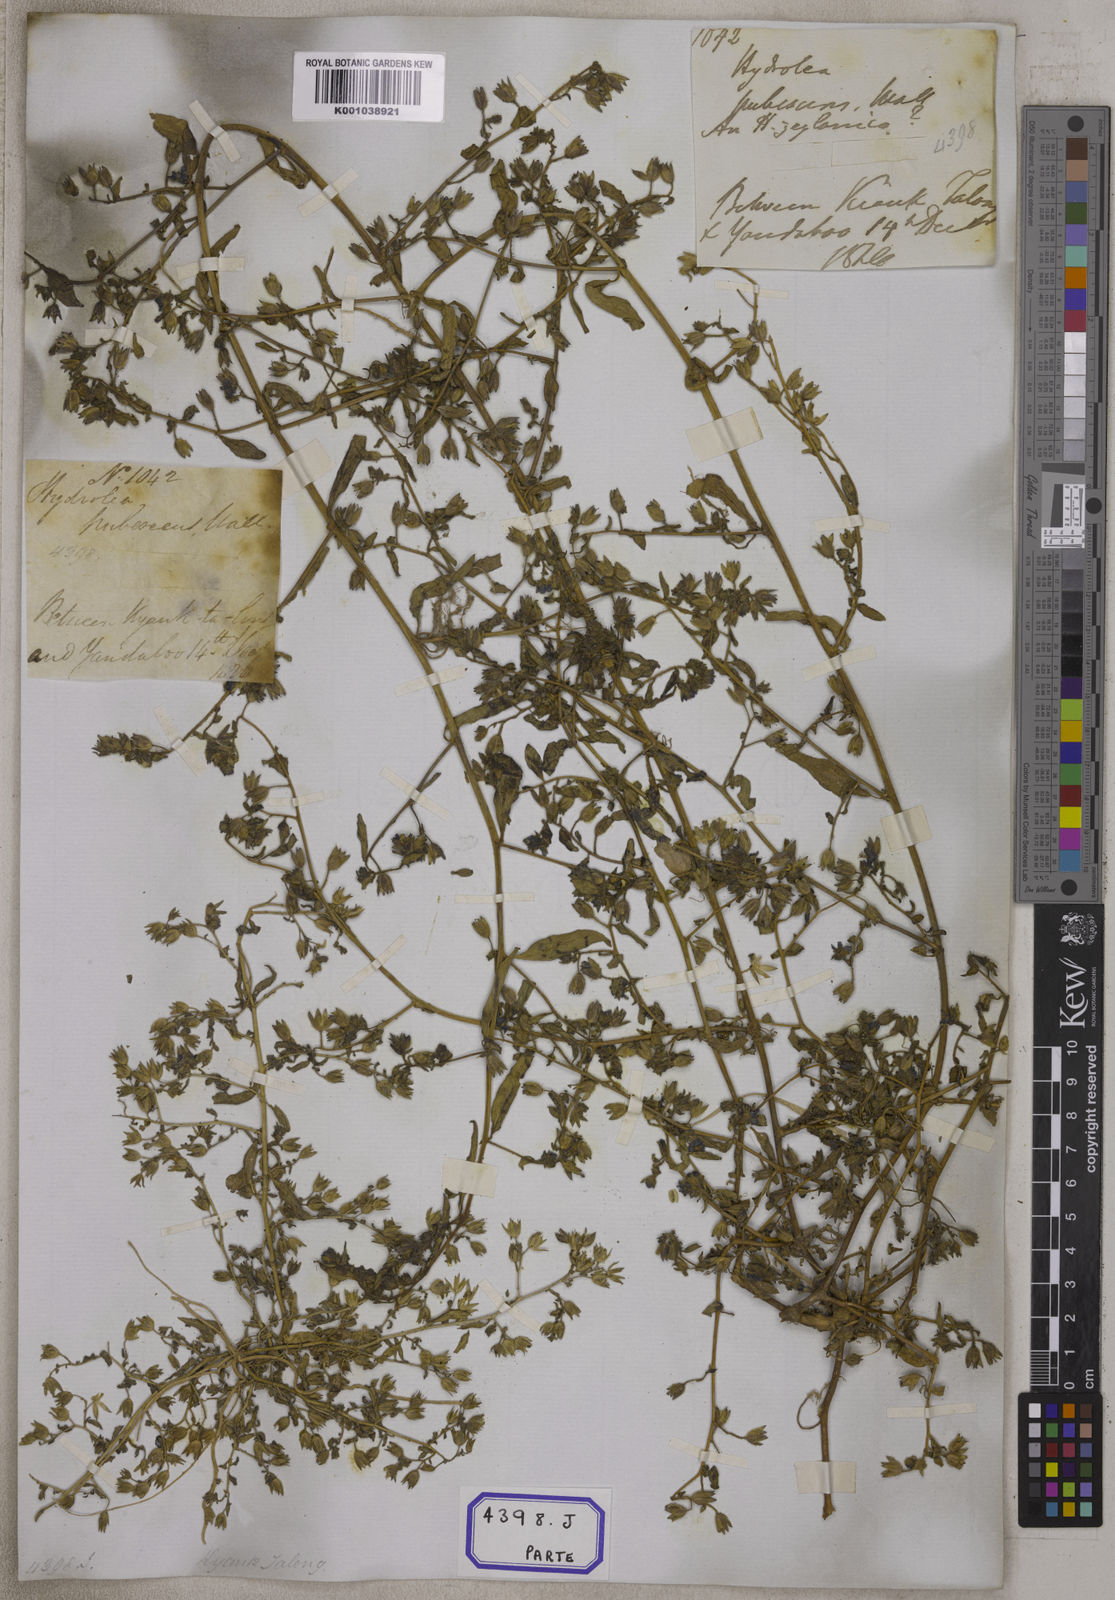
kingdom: Plantae
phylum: Tracheophyta
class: Magnoliopsida
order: Solanales
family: Hydroleaceae
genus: Hydrolea
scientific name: Hydrolea zeylanica
